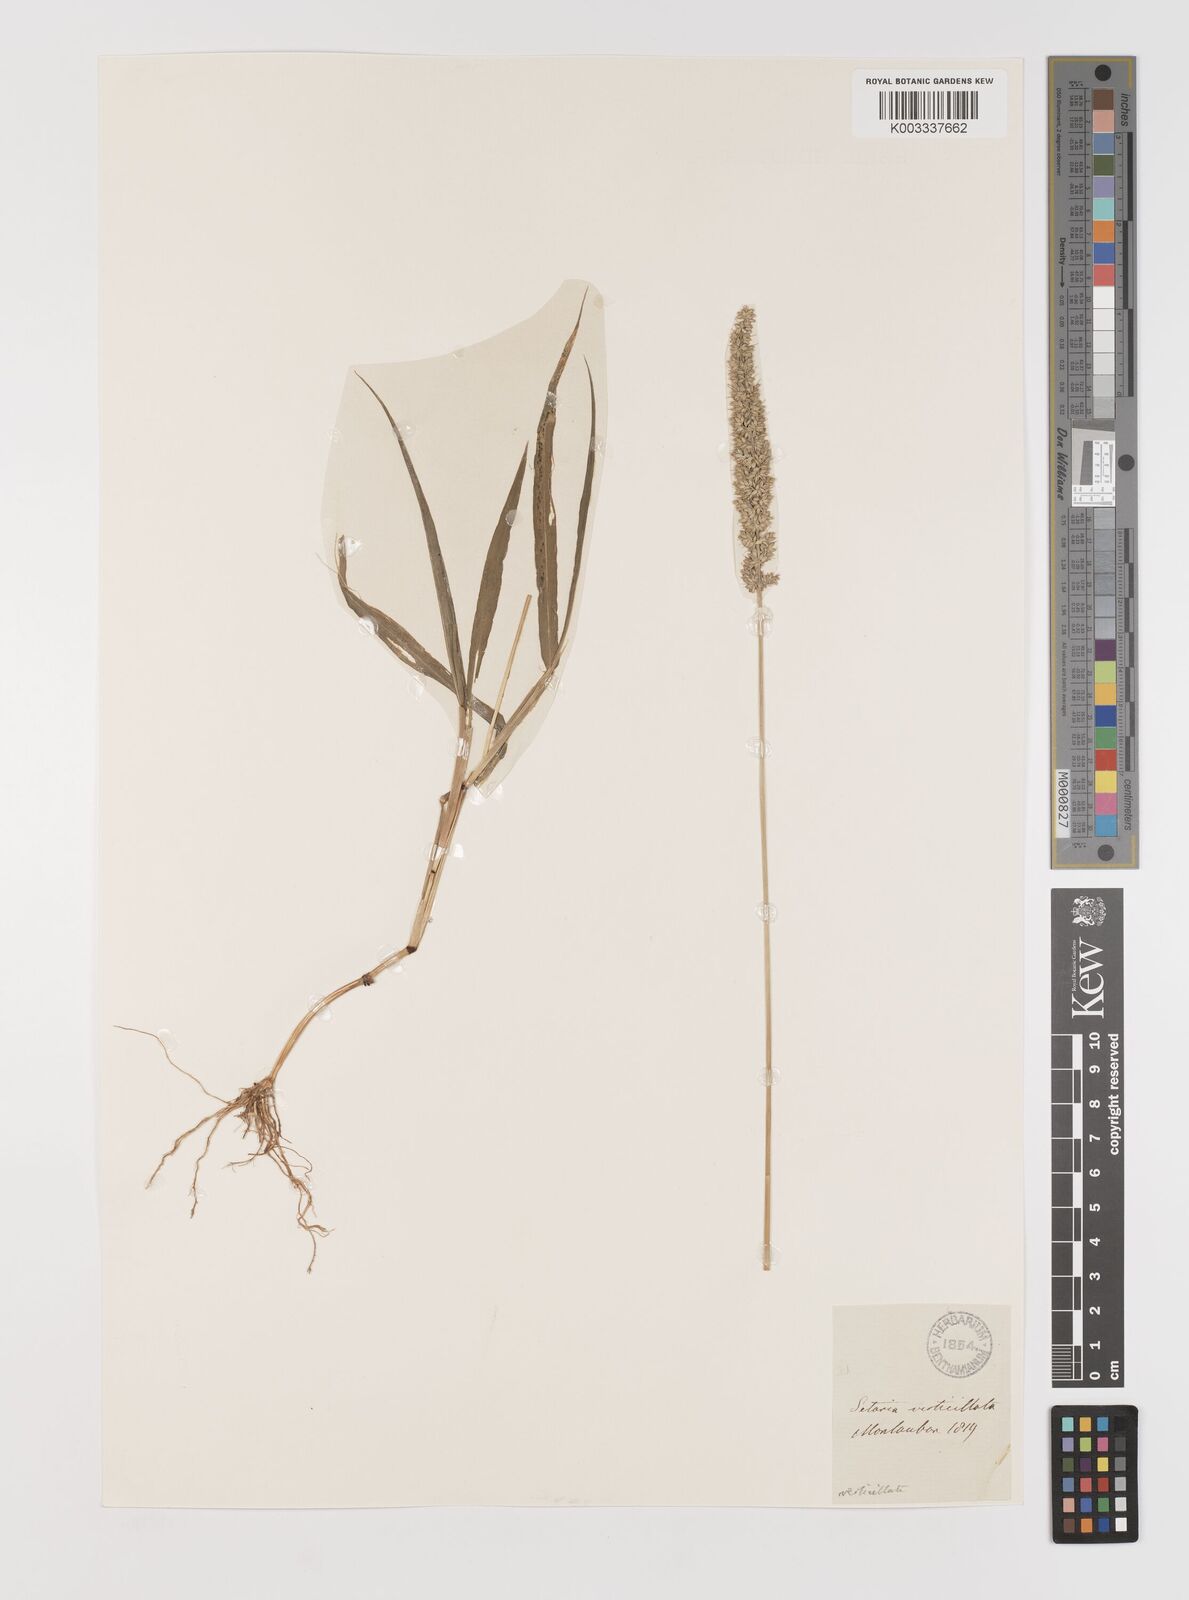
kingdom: Plantae
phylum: Tracheophyta
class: Liliopsida
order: Poales
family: Poaceae
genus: Setaria
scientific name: Setaria verticillata
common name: Hooked bristlegrass
